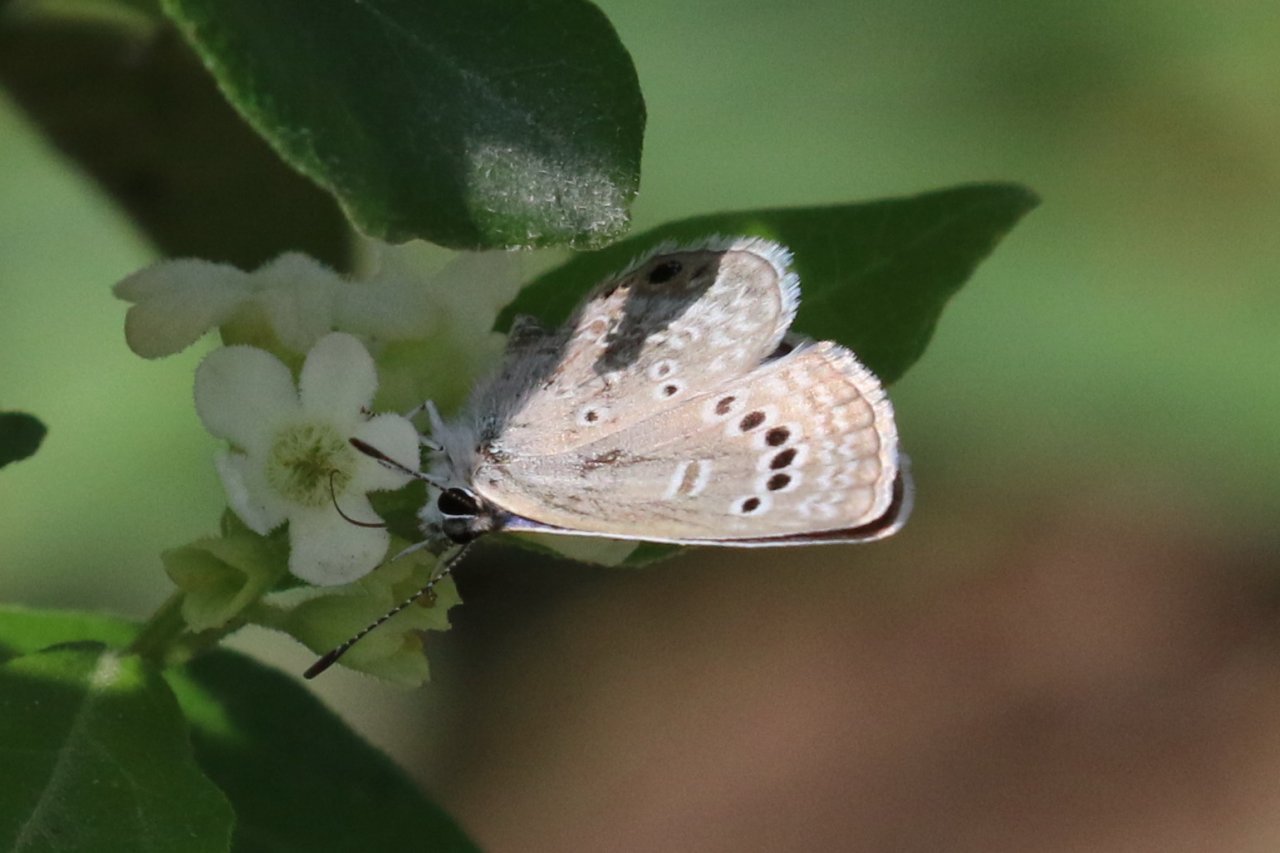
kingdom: Animalia
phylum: Arthropoda
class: Insecta
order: Lepidoptera
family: Lycaenidae
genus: Echinargus
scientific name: Echinargus isola
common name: Reakirt's Blue
